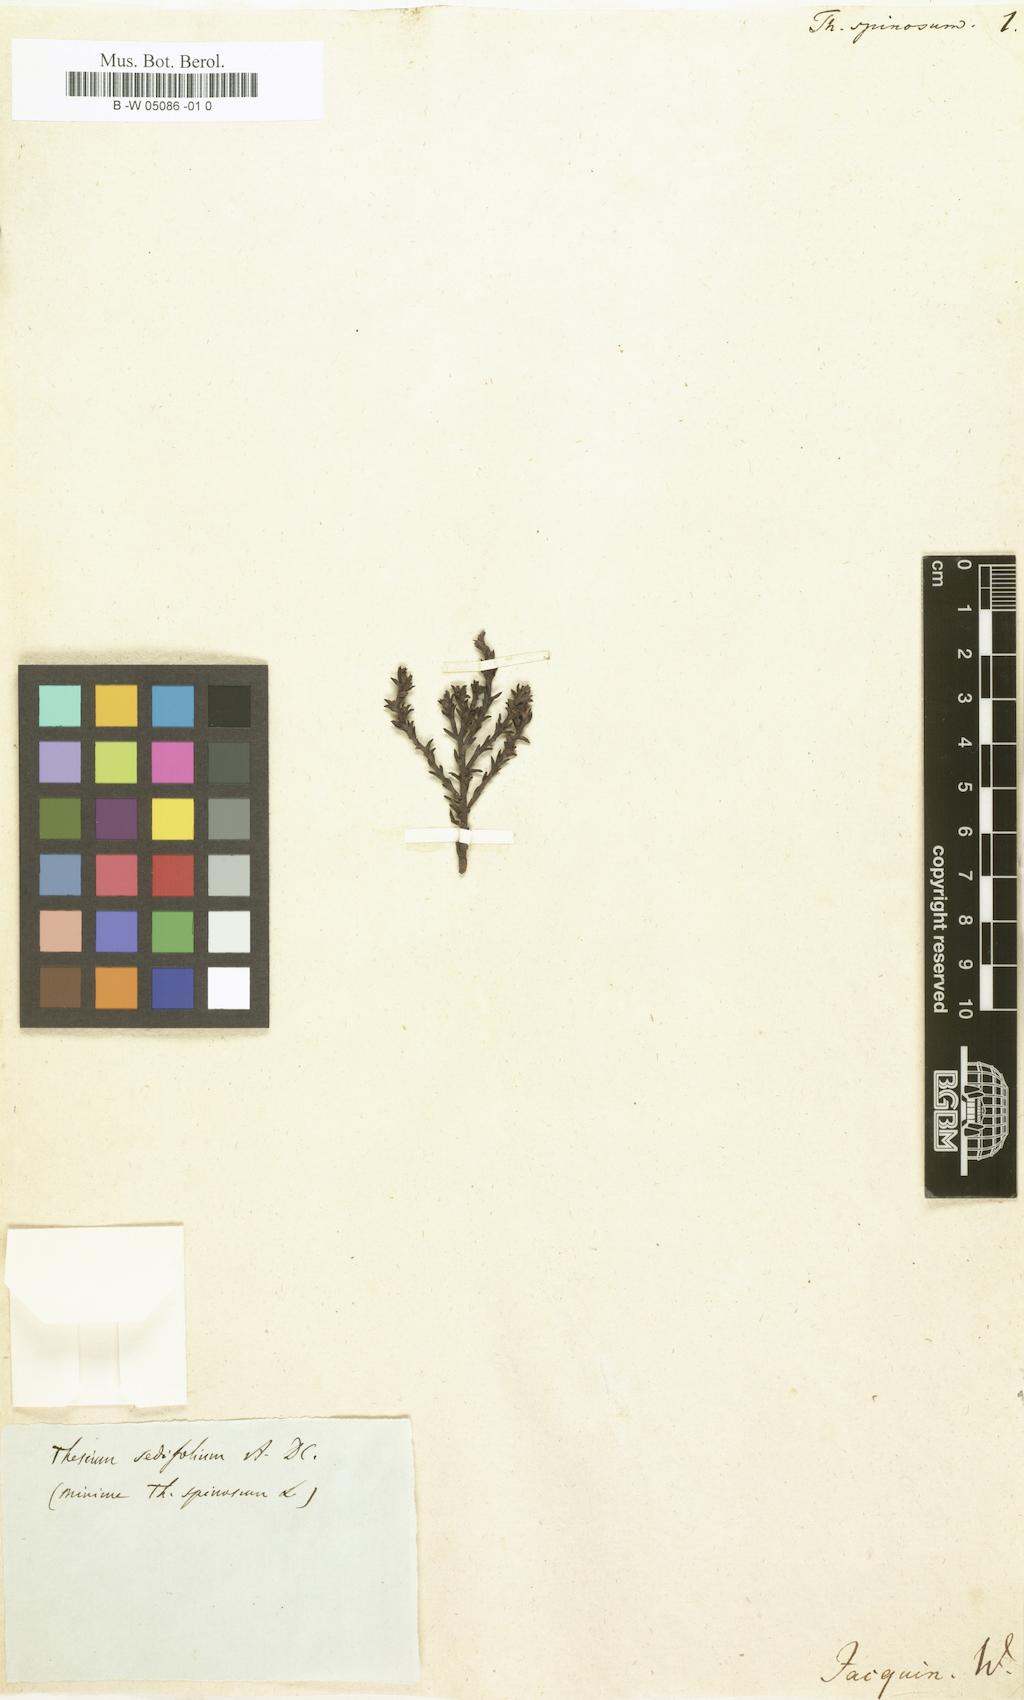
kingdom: Plantae
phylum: Tracheophyta
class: Magnoliopsida
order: Santalales
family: Thesiaceae
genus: Thesium
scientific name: Thesium spinosum
